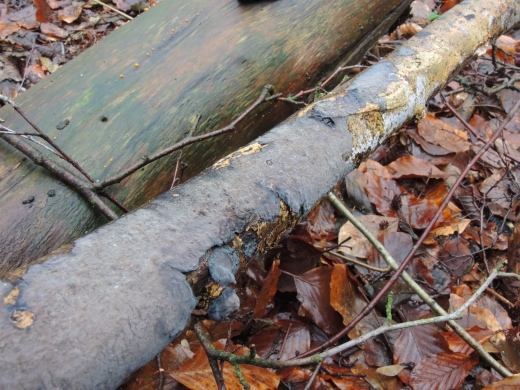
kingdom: Fungi
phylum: Basidiomycota
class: Agaricomycetes
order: Russulales
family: Peniophoraceae
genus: Peniophora
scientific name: Peniophora limitata
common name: mørkrandet voksskind
